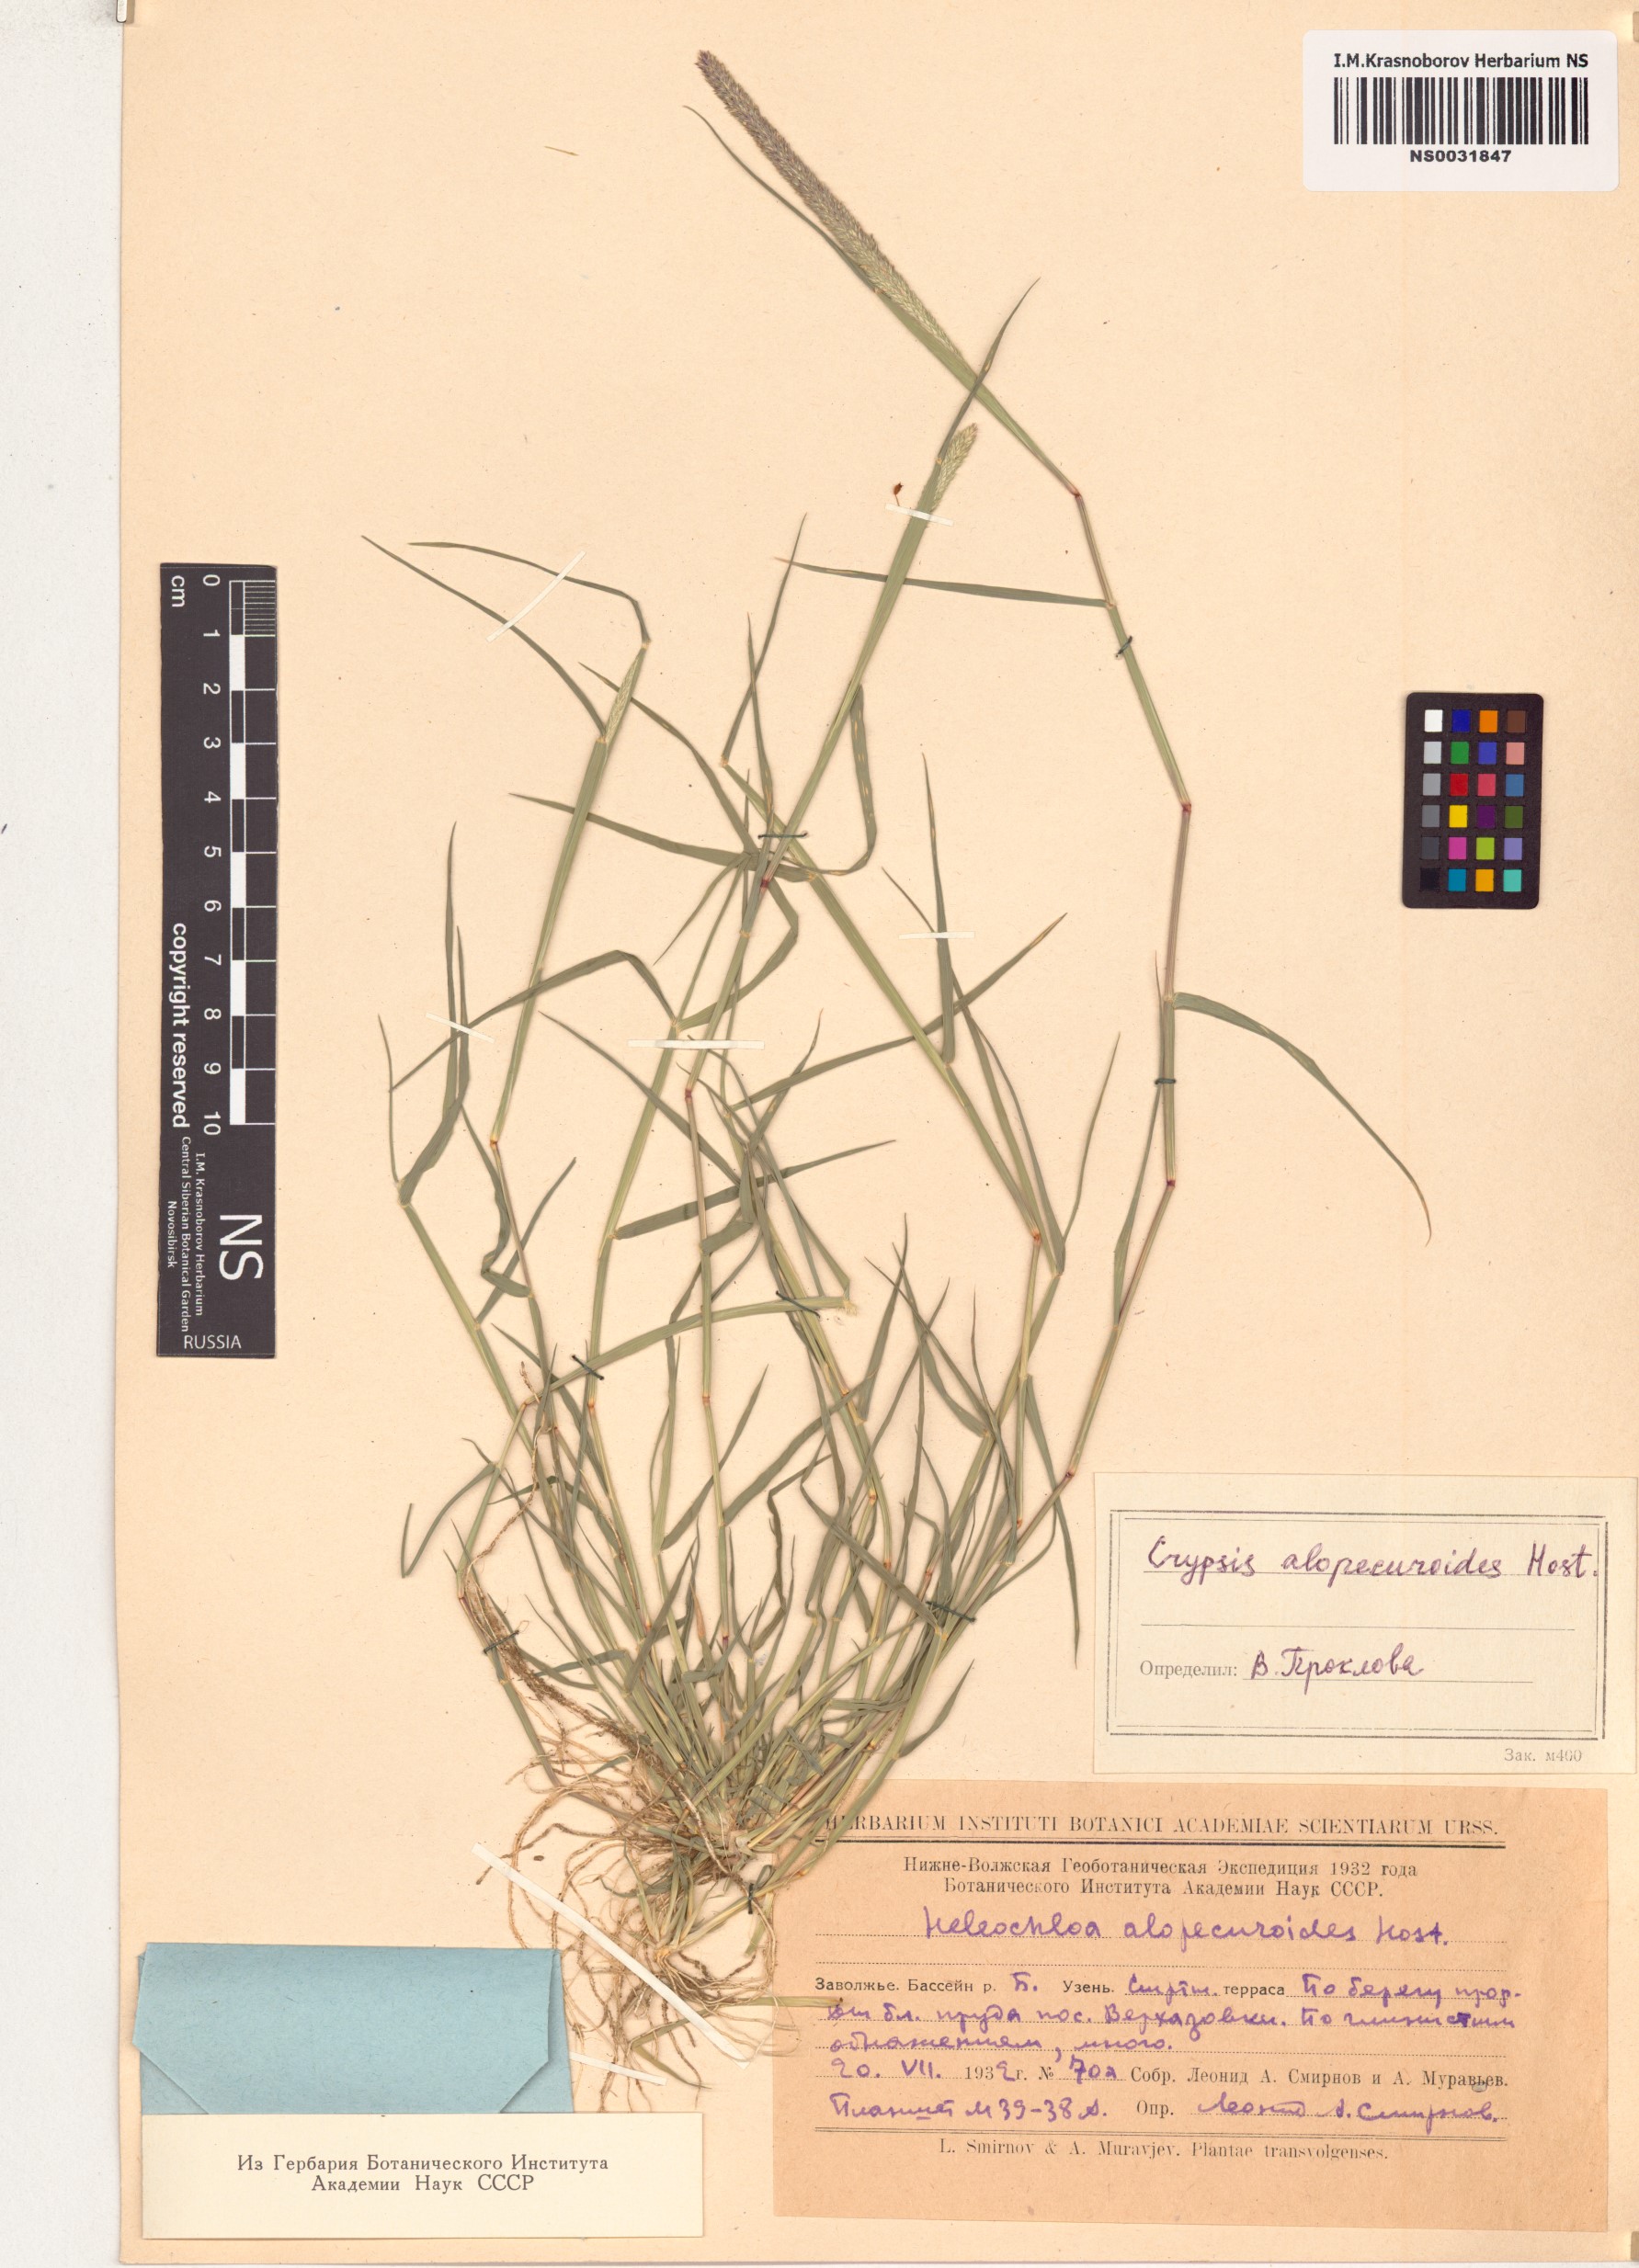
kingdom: Plantae
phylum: Tracheophyta
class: Liliopsida
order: Poales
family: Poaceae
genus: Sporobolus
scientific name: Sporobolus alopecuroides
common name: Foxtail pricklegrass
